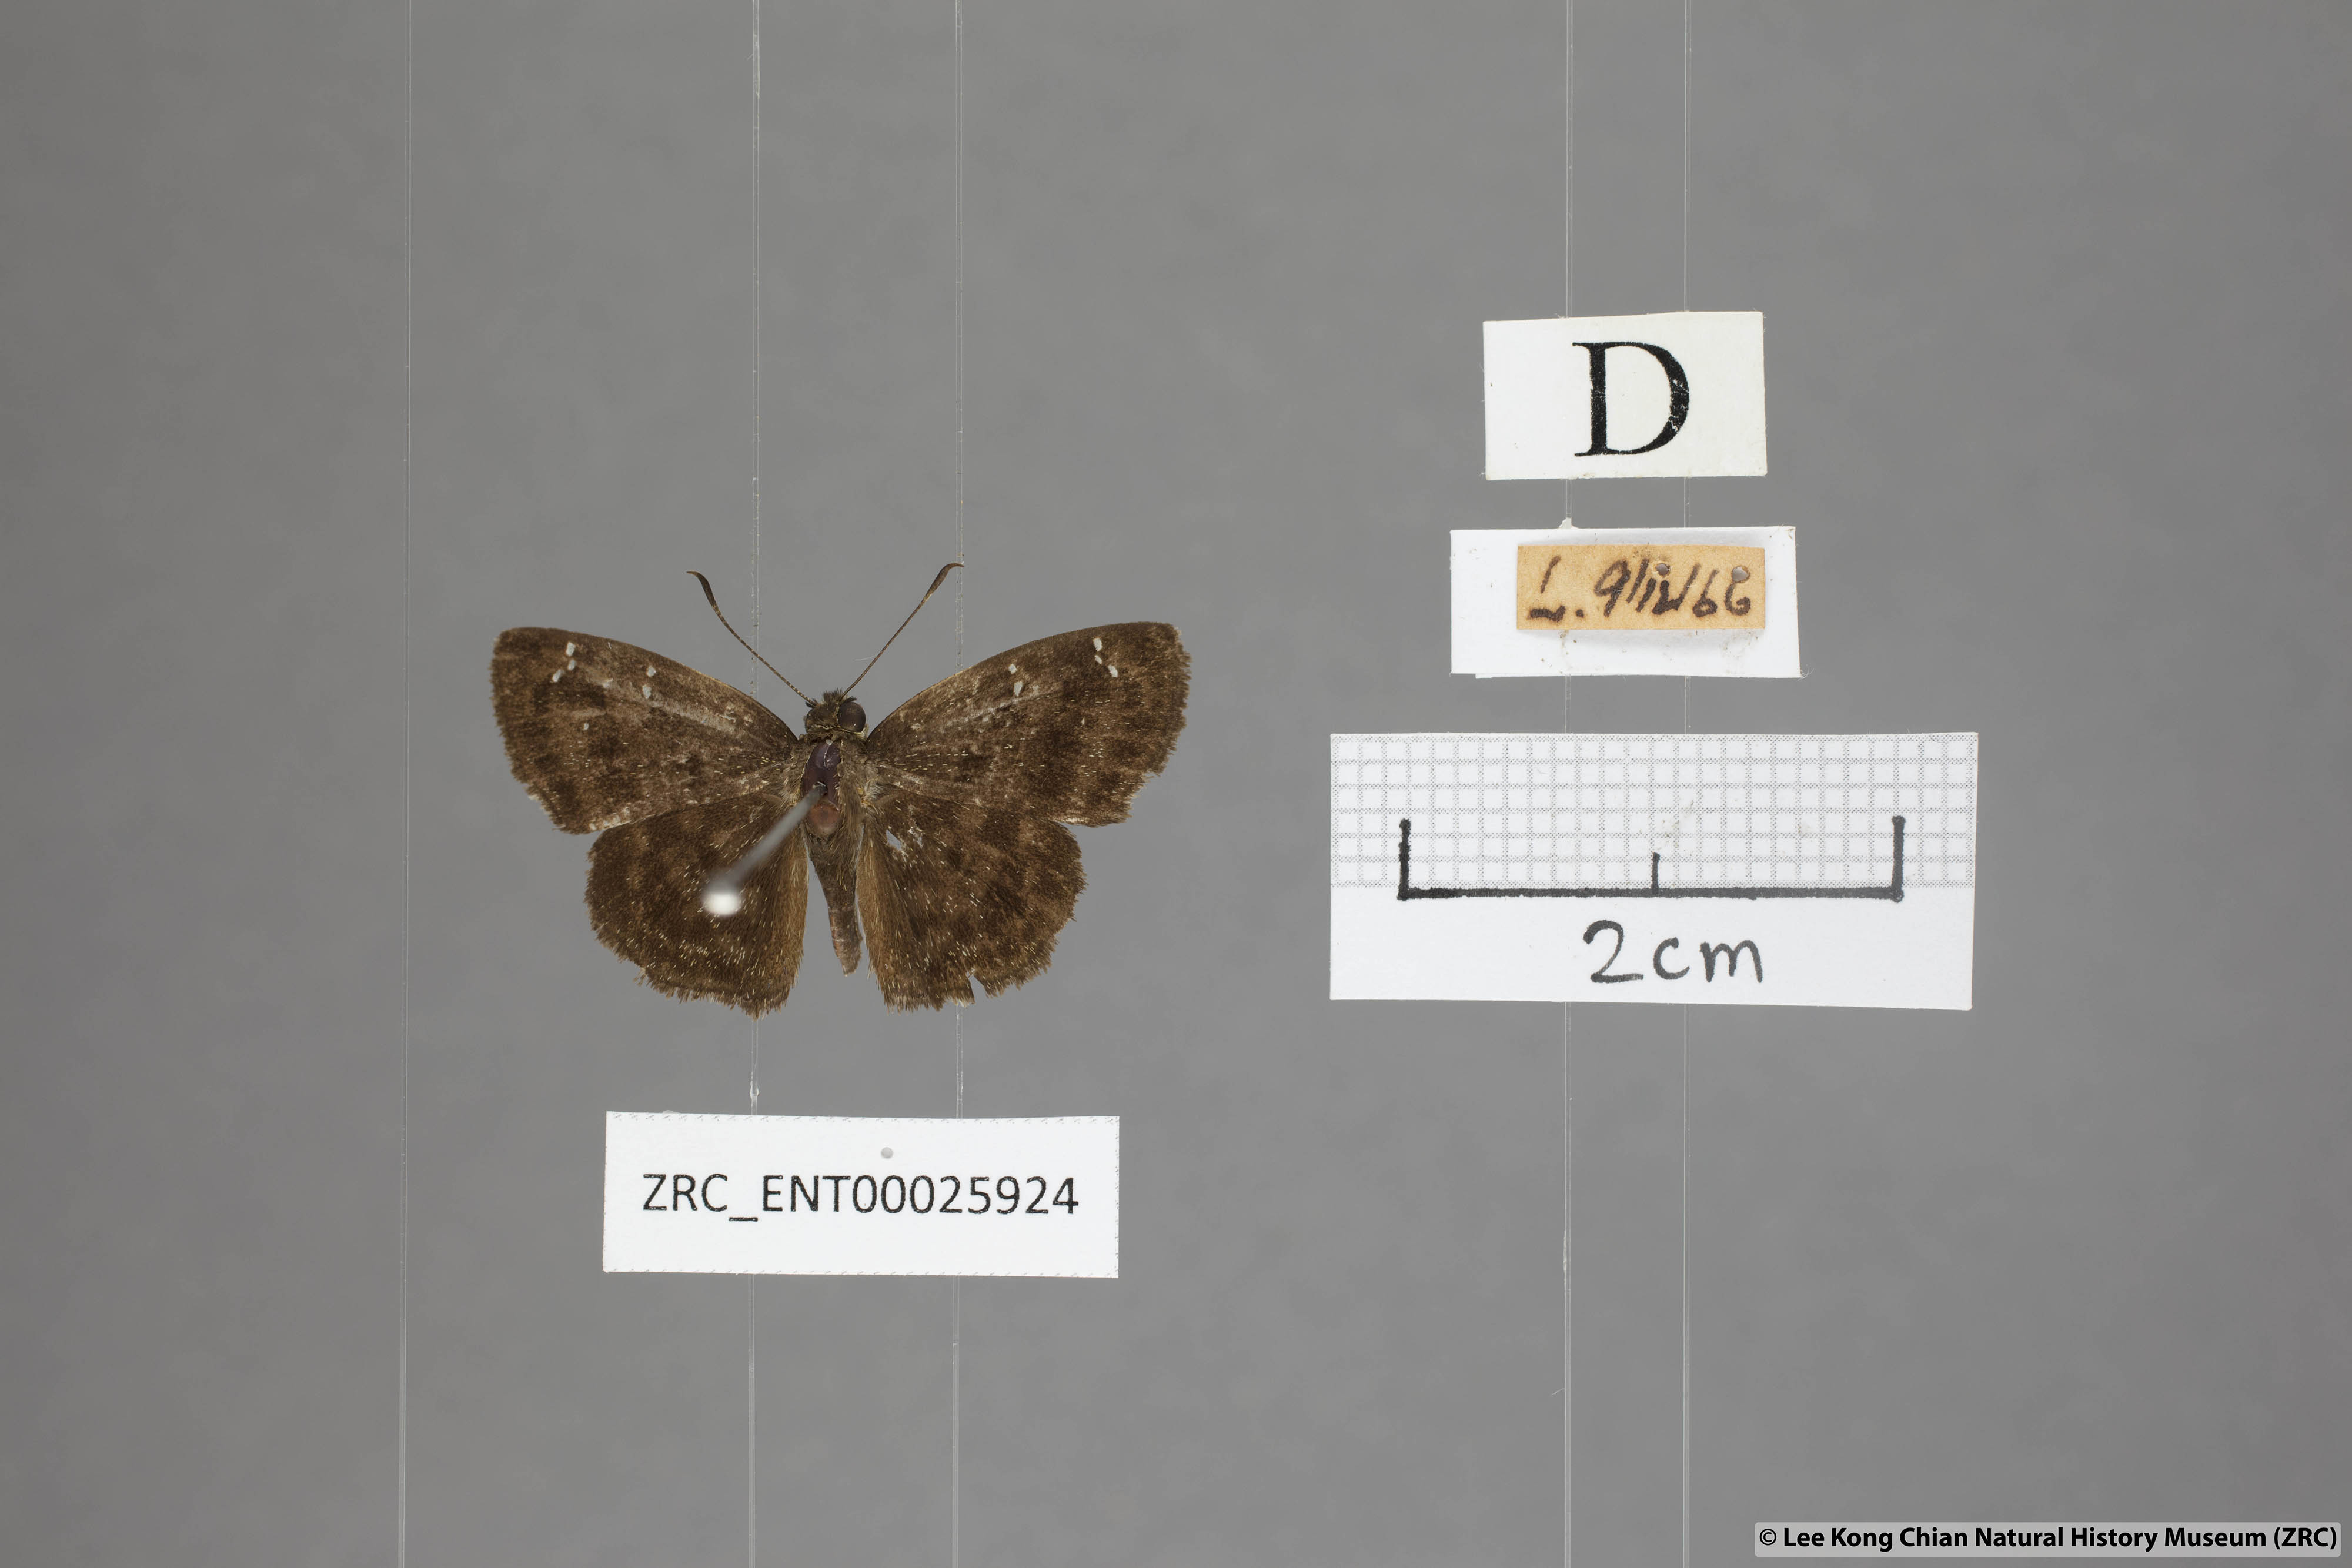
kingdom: Animalia
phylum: Arthropoda
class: Insecta
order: Lepidoptera
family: Hesperiidae
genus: Sarangesa
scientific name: Sarangesa dasahara
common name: Common small flat
